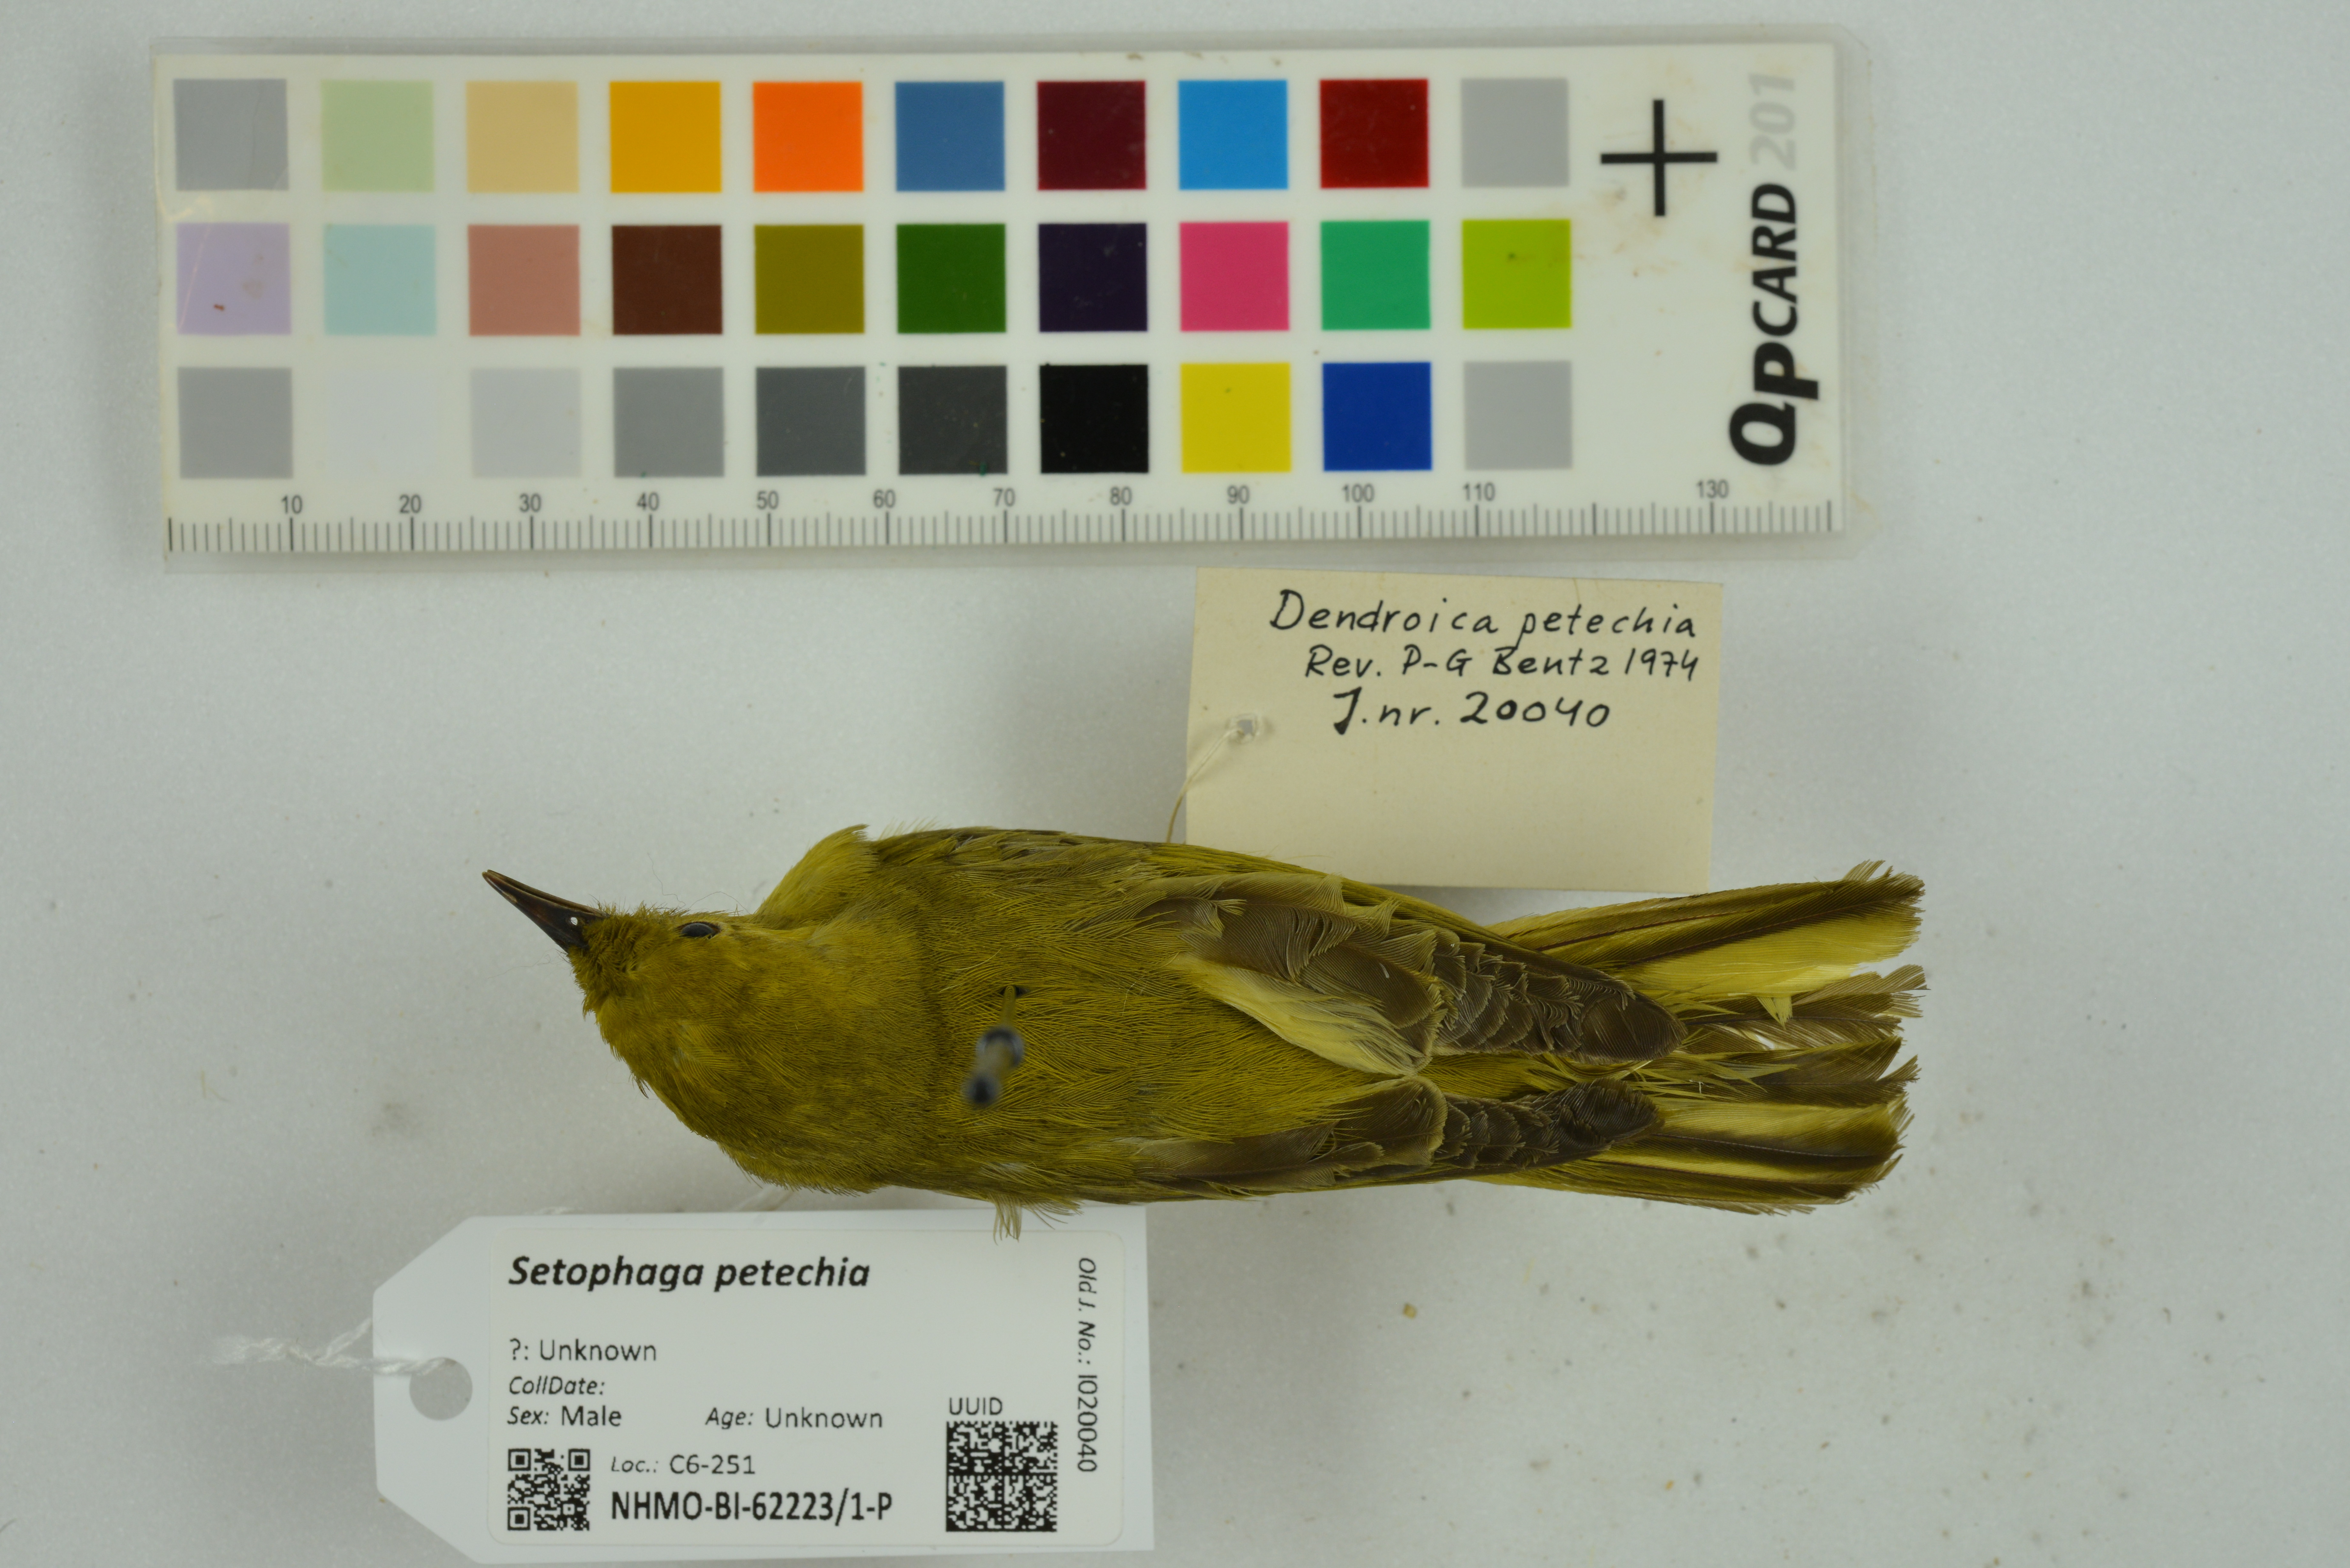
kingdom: Animalia
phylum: Chordata
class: Aves
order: Passeriformes
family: Parulidae
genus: Setophaga
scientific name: Setophaga petechia
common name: Yellow warbler
